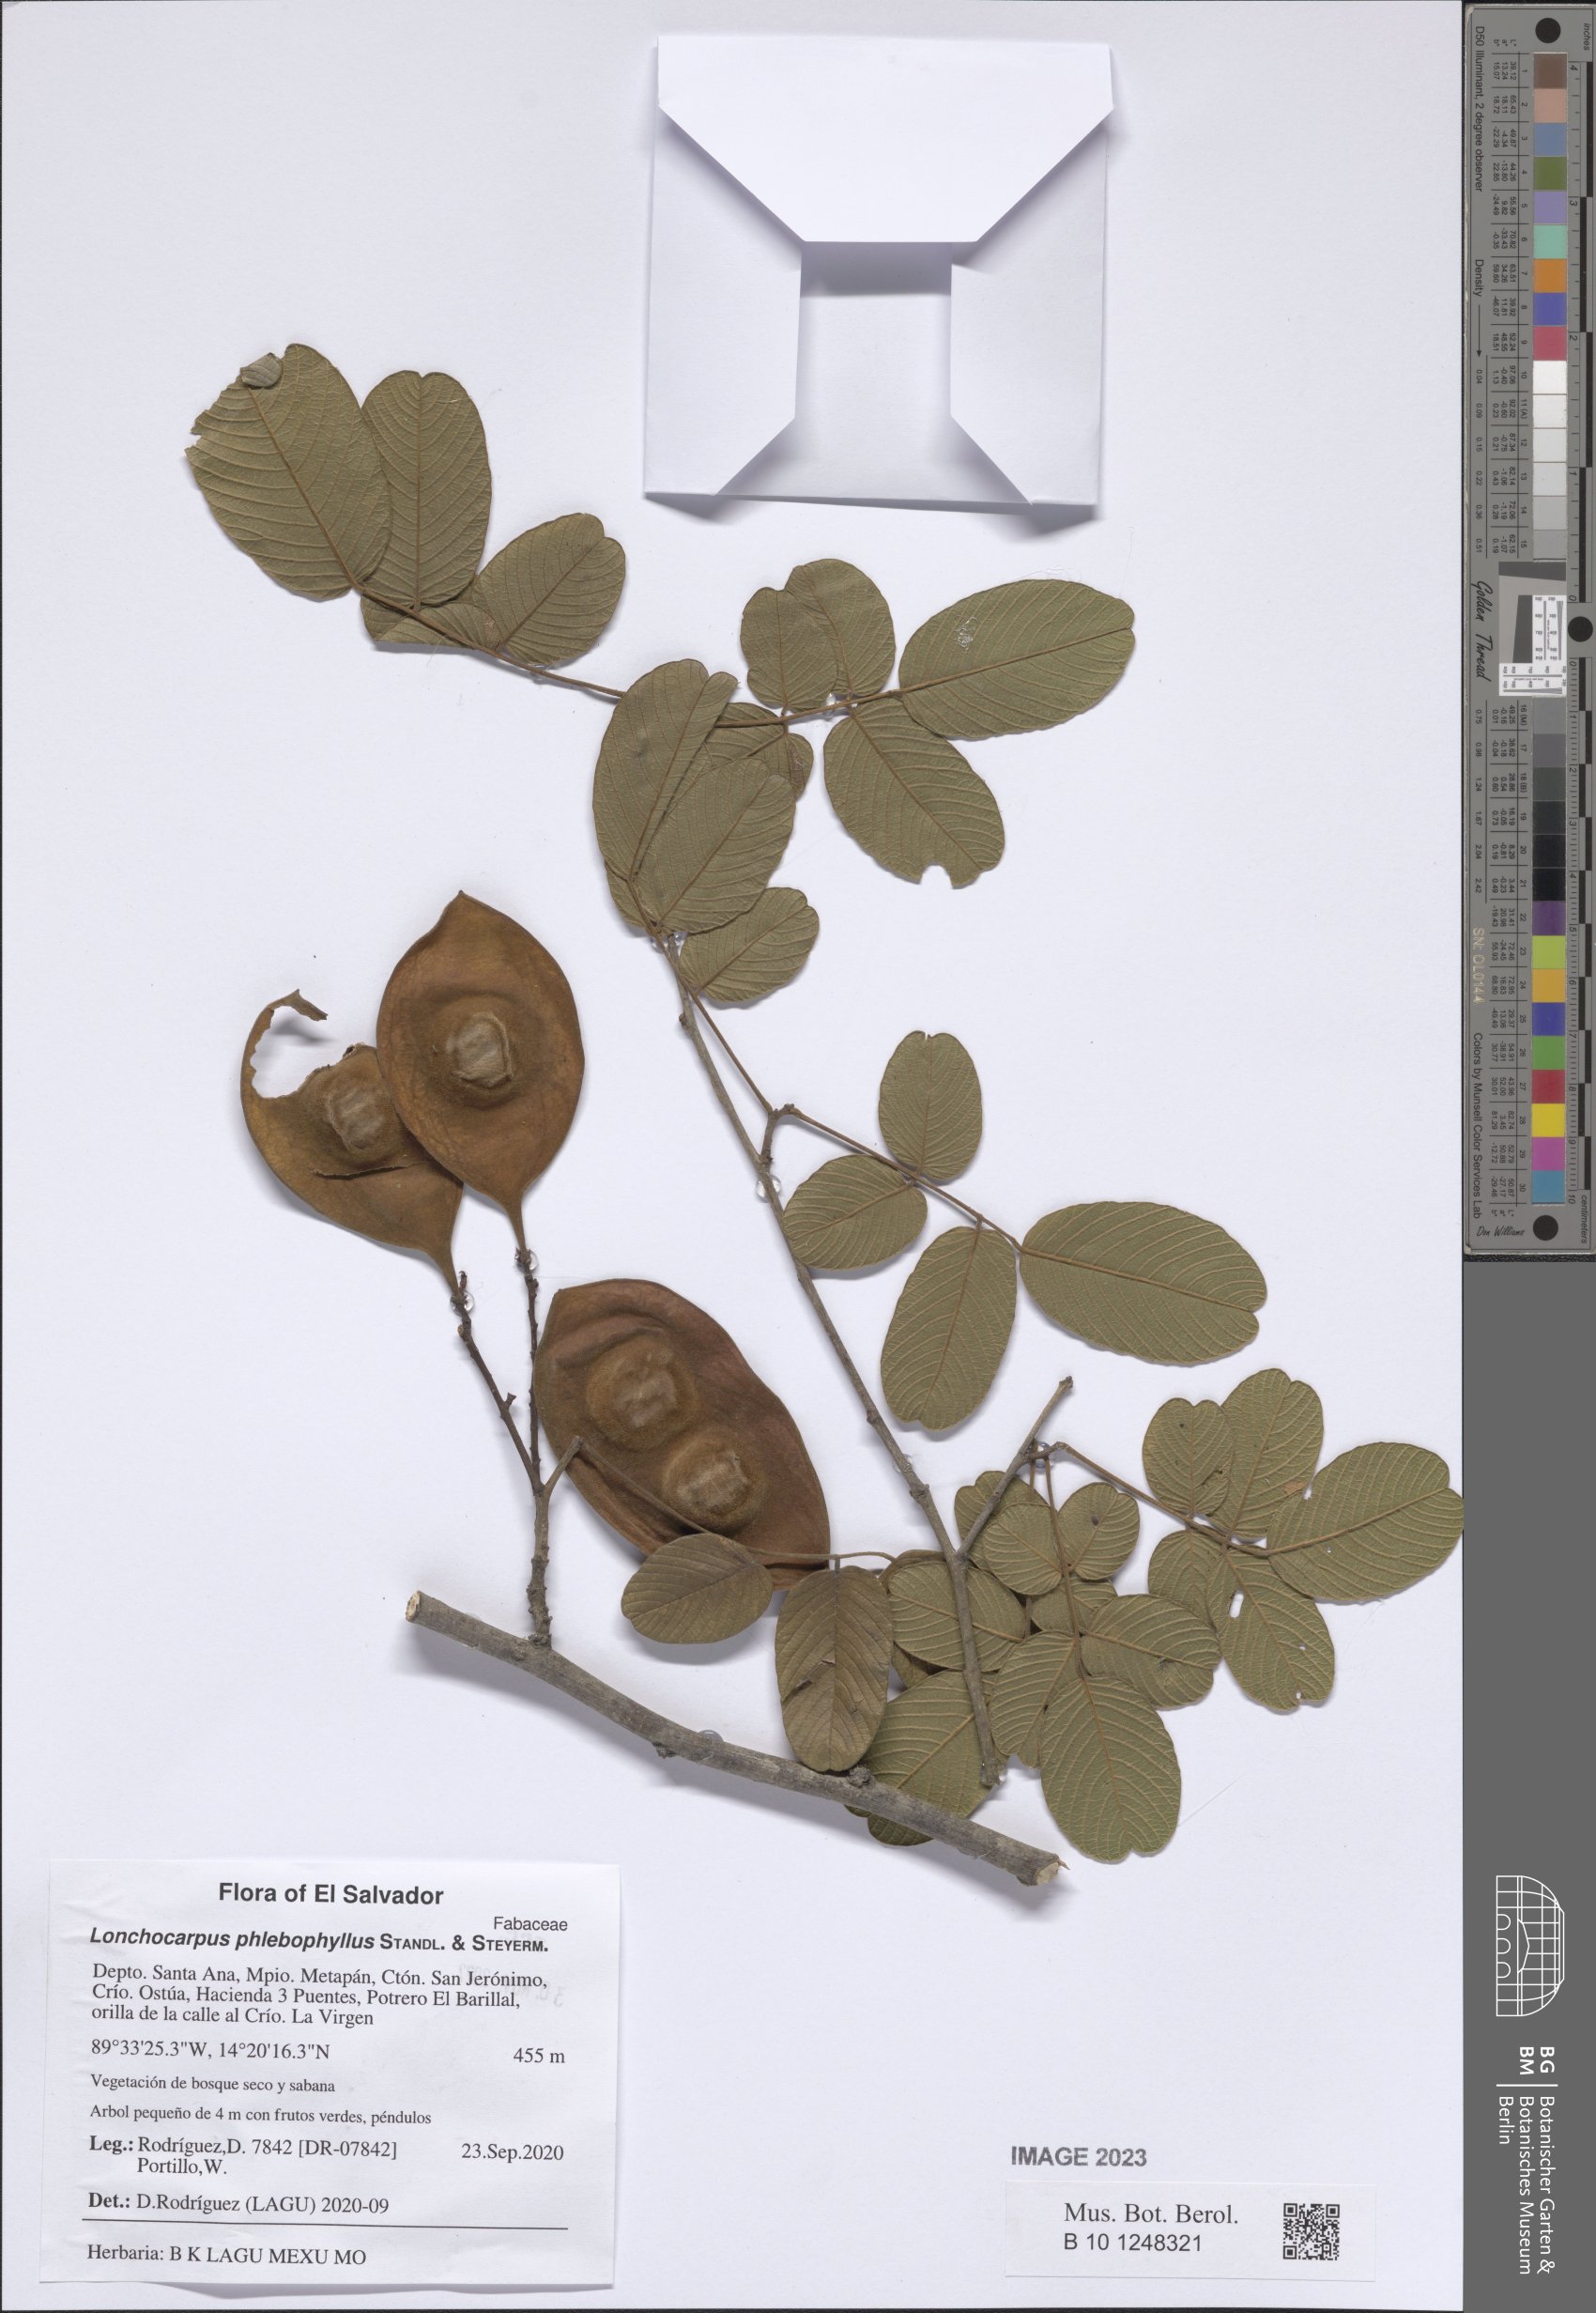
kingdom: Plantae
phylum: Tracheophyta
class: Magnoliopsida
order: Fabales
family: Fabaceae
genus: Lonchocarpus
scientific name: Lonchocarpus phlebophyllus
